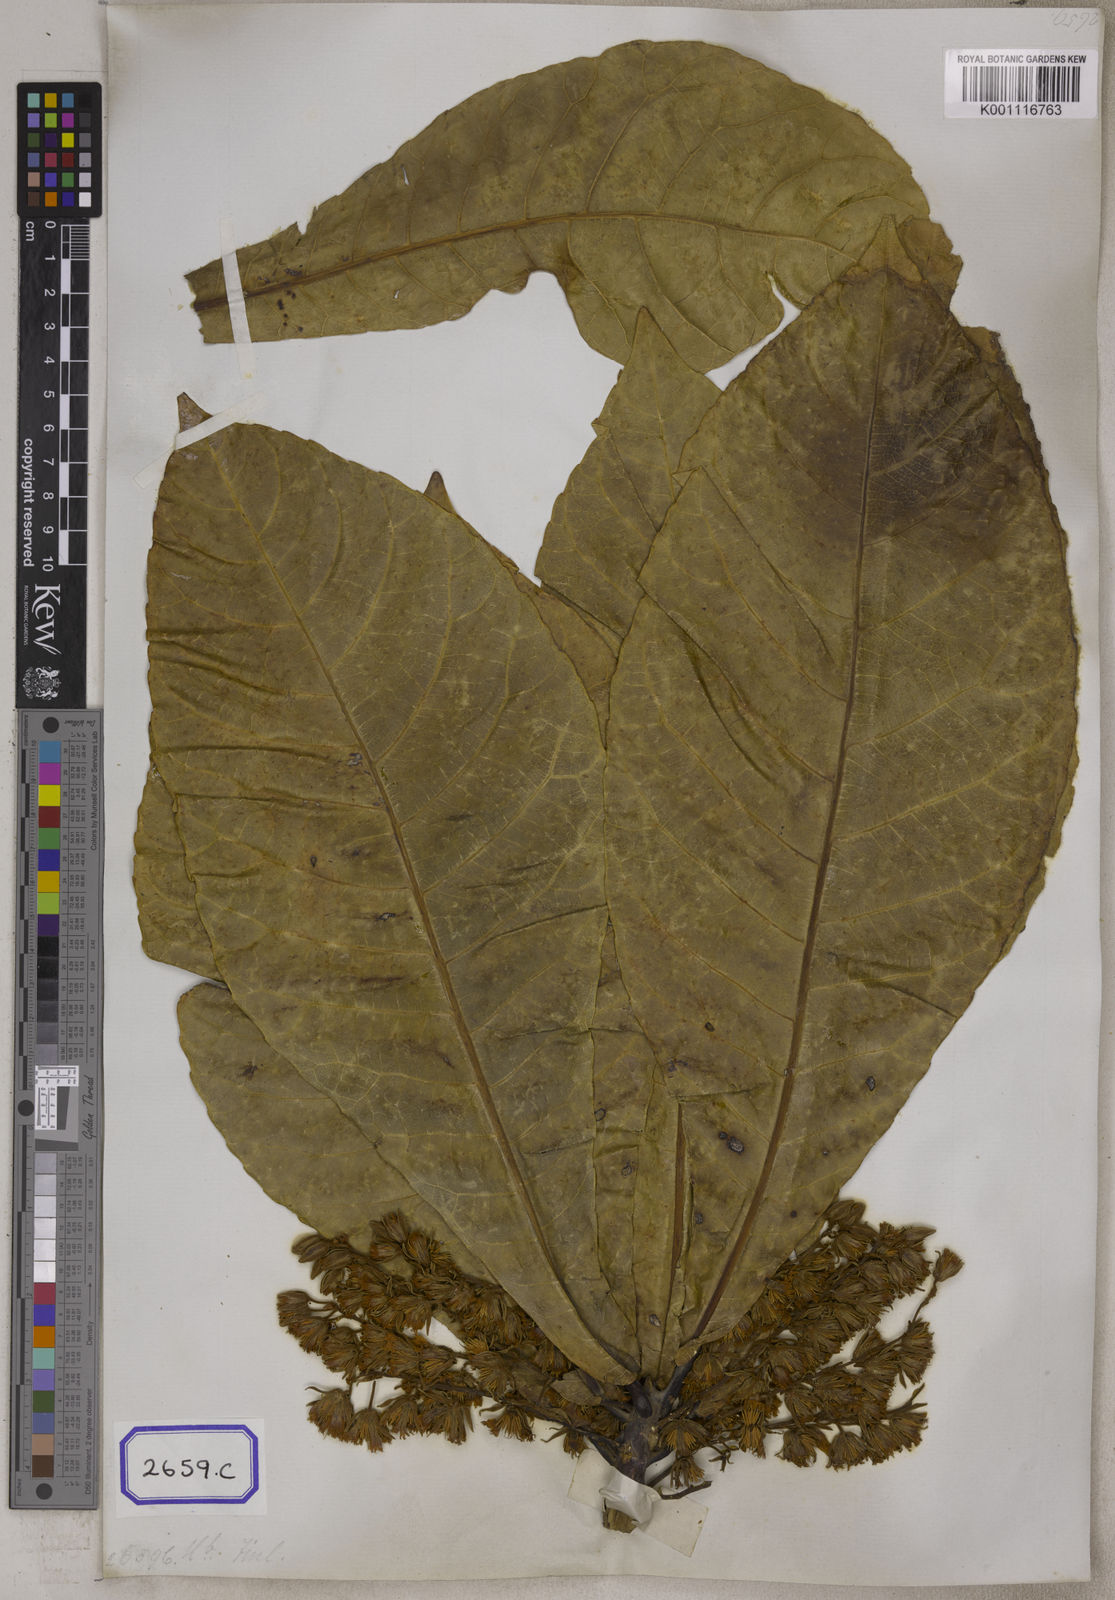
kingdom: Plantae
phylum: Tracheophyta
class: Magnoliopsida
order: Oxalidales
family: Elaeocarpaceae
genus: Elaeocarpus
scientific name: Elaeocarpus
